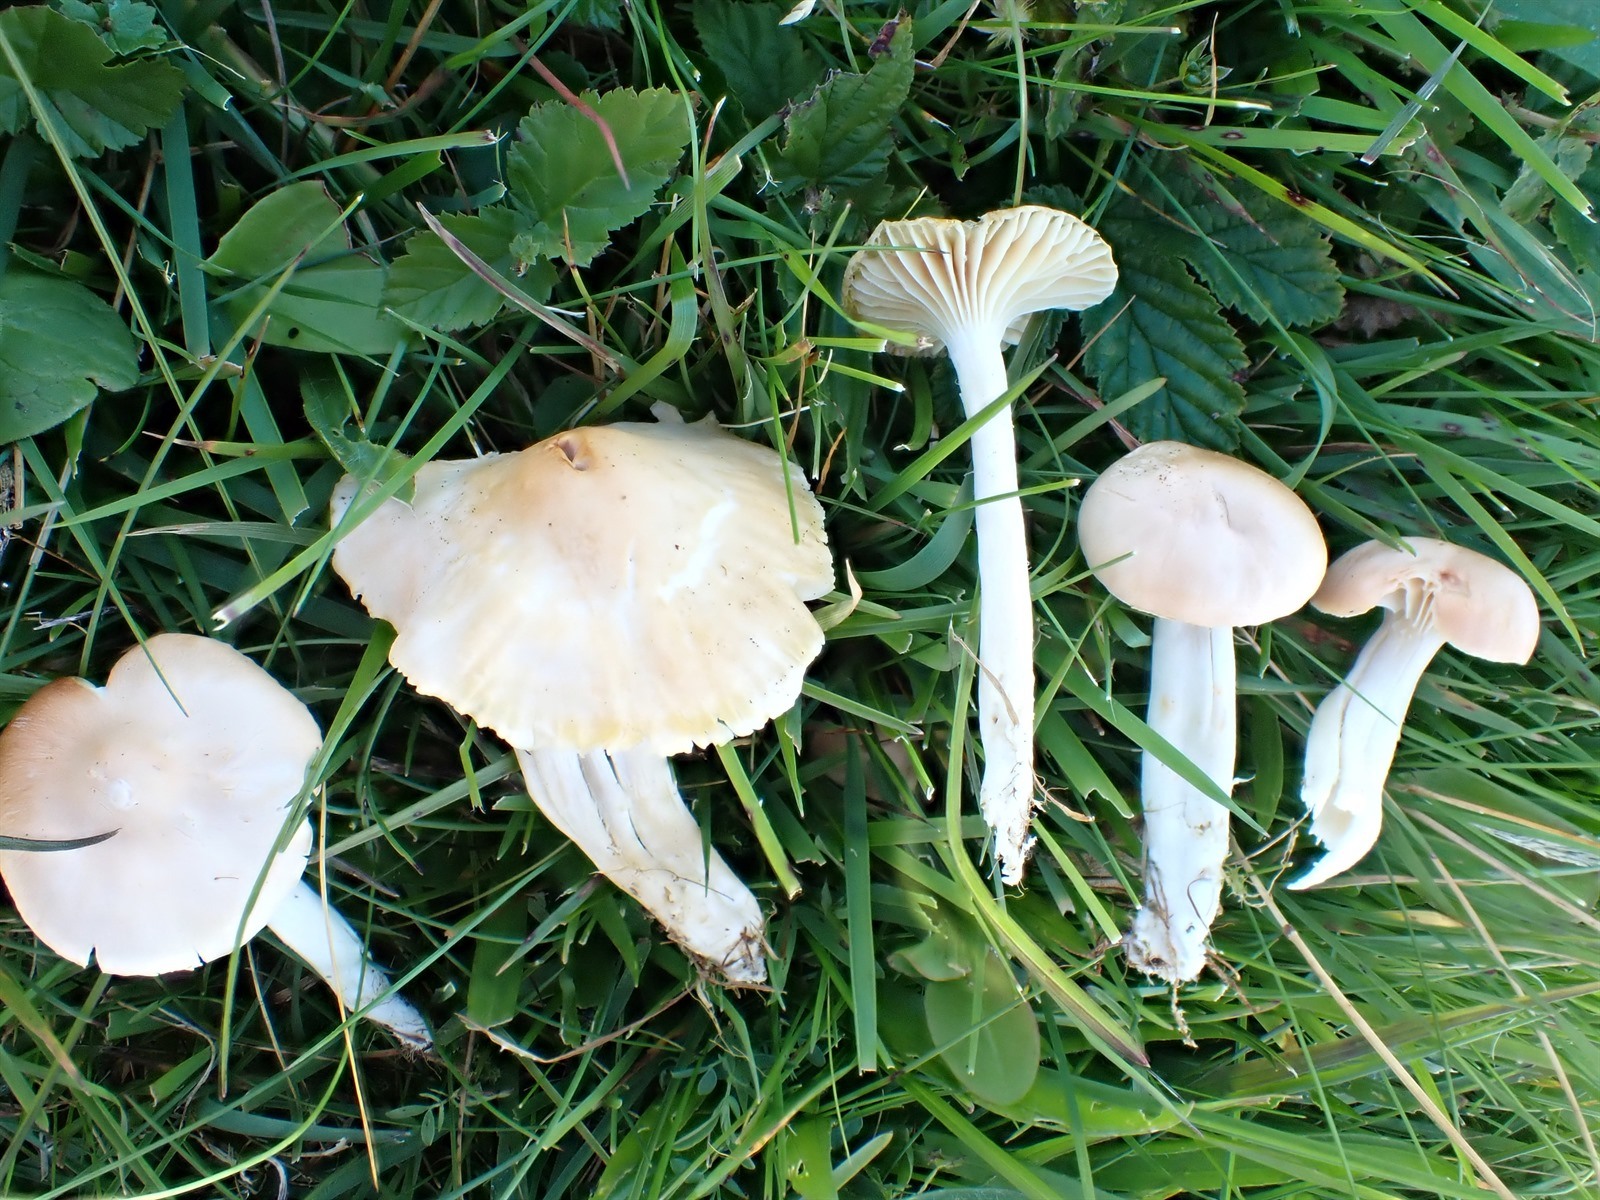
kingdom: Fungi
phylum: Basidiomycota
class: Agaricomycetes
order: Agaricales
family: Hygrophoraceae
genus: Cuphophyllus
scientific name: Cuphophyllus pratensis
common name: Meadow waxcap
